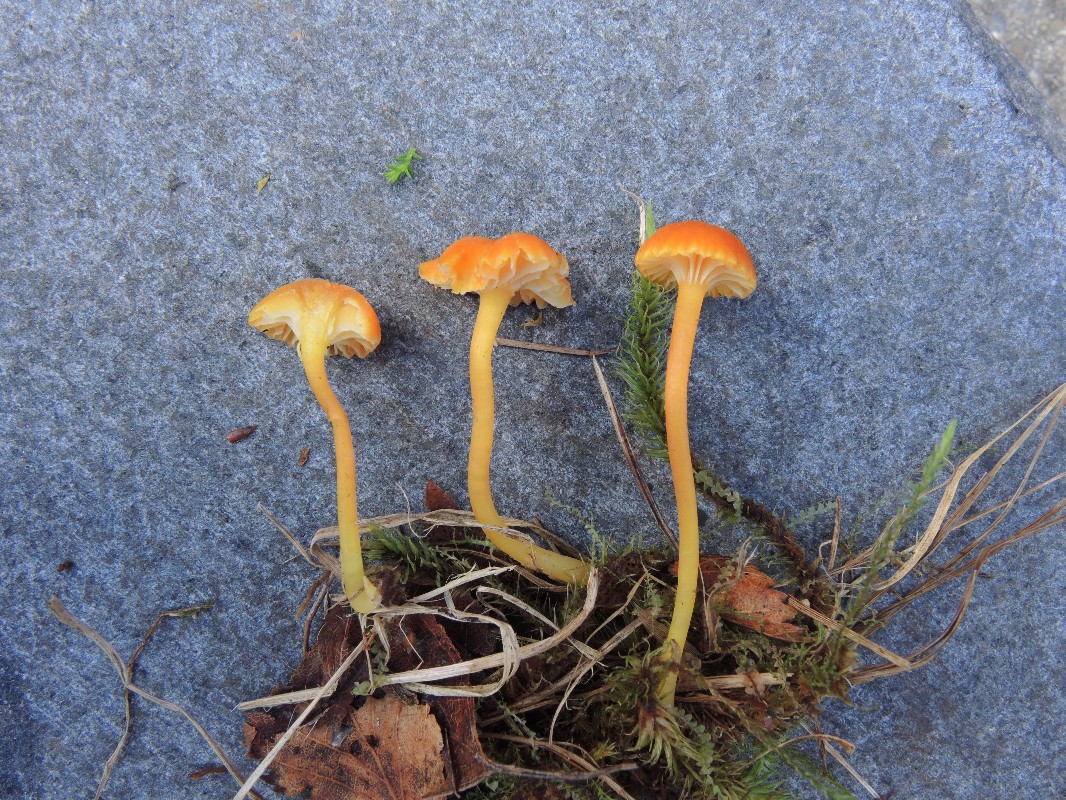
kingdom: Fungi
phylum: Basidiomycota
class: Agaricomycetes
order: Agaricales
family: Hygrophoraceae
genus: Hygrocybe
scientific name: Hygrocybe cantharellus
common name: kantarel-vokshat
